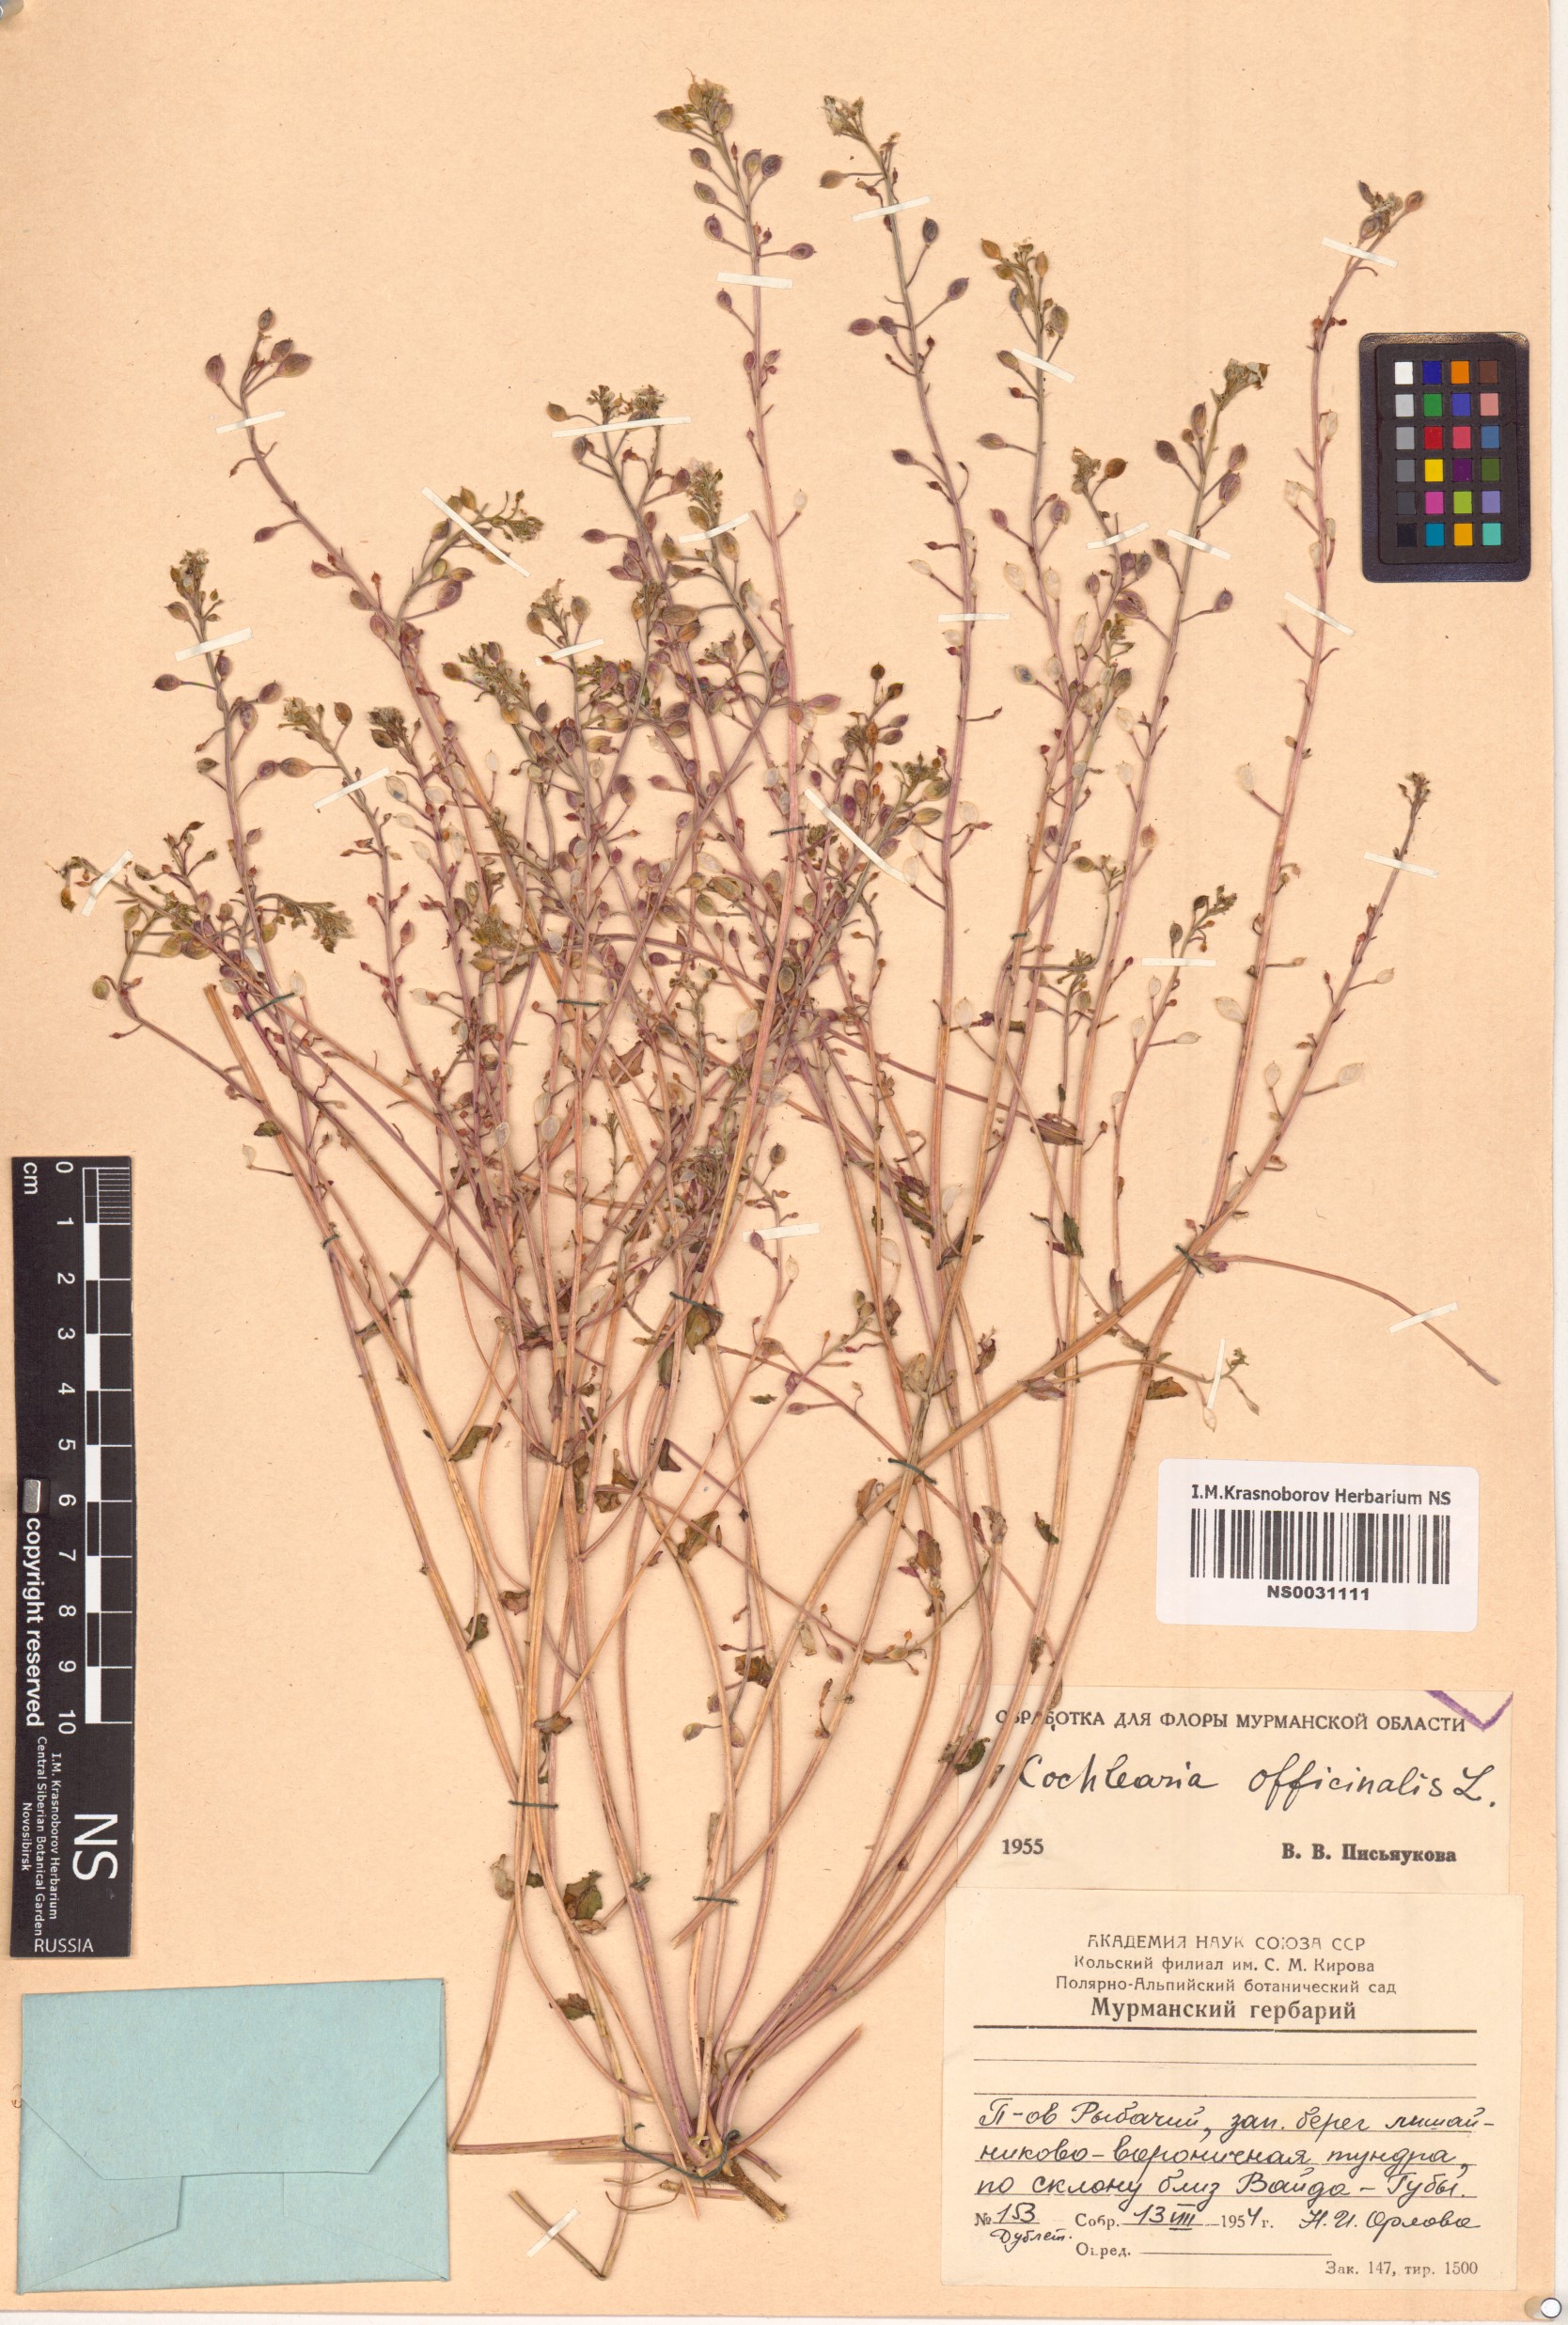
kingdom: Plantae
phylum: Tracheophyta
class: Magnoliopsida
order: Brassicales
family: Brassicaceae
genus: Cochlearia
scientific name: Cochlearia officinalis
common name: Scurvy-grass
